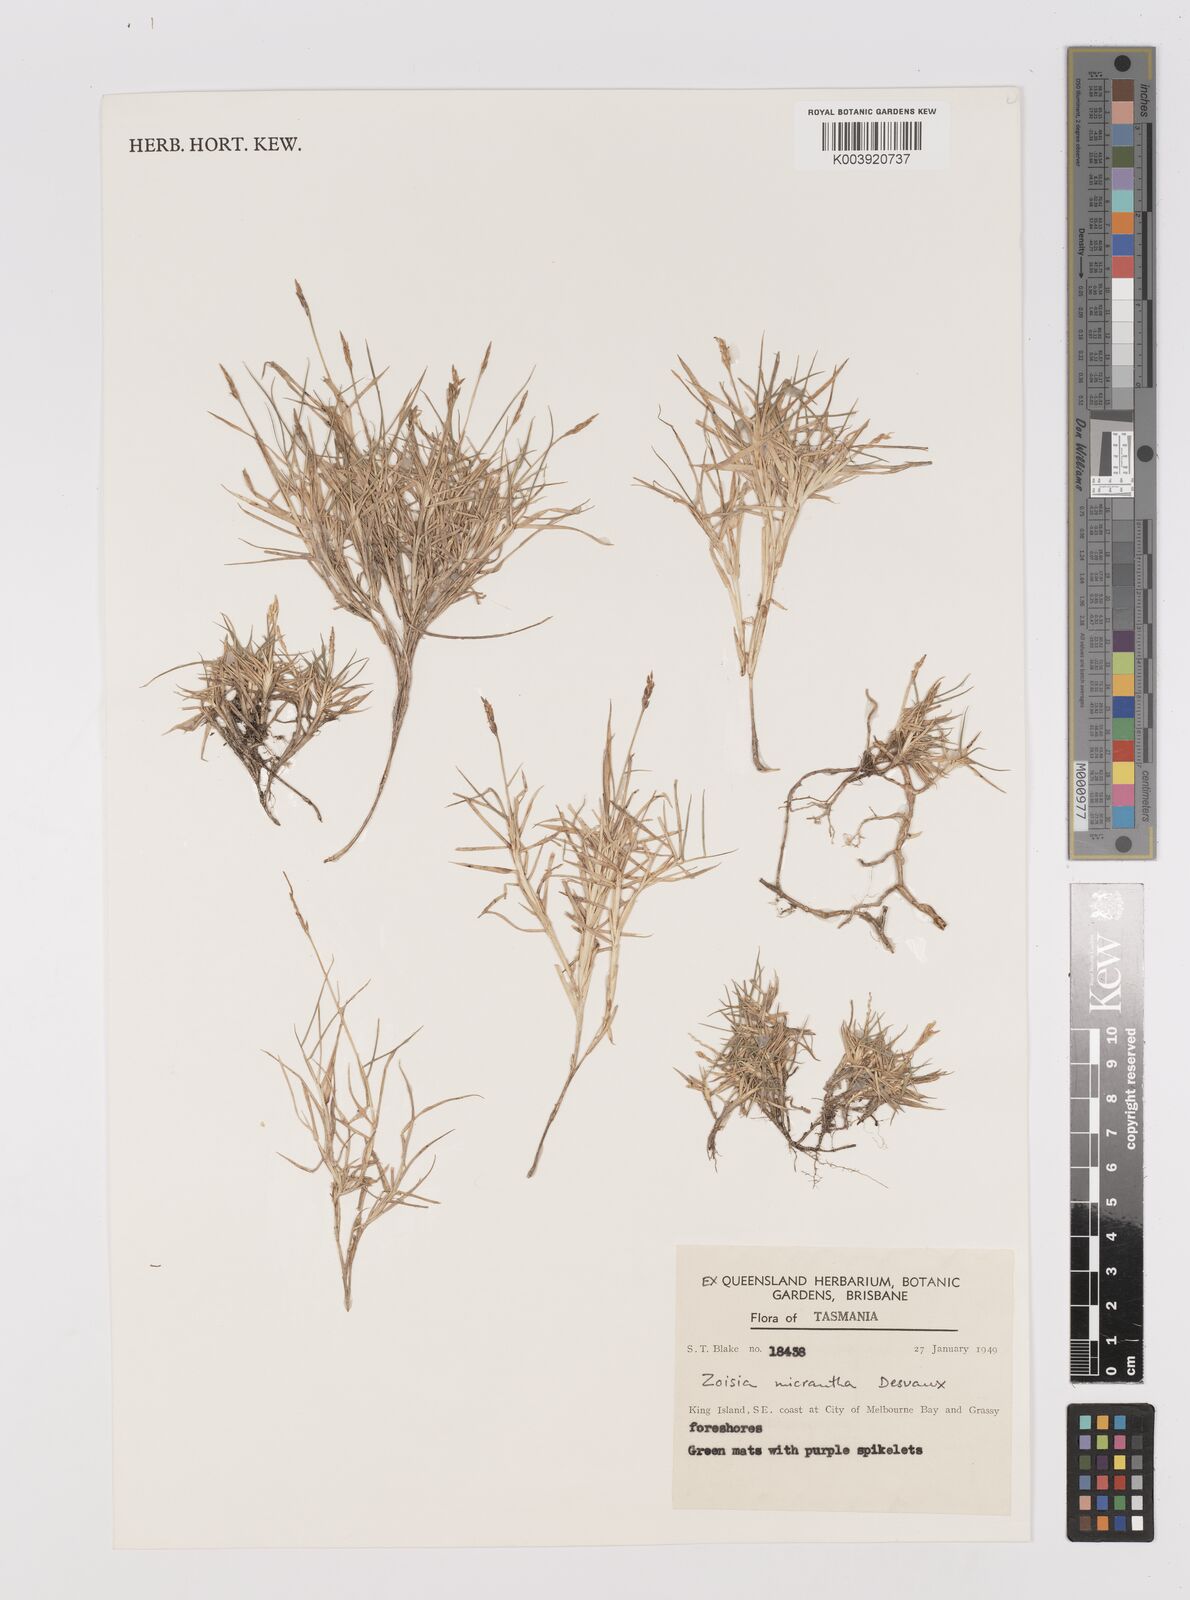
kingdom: Plantae
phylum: Tracheophyta
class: Liliopsida
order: Poales
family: Poaceae
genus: Zoysia
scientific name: Zoysia macrantha
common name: Korean lawn grass
